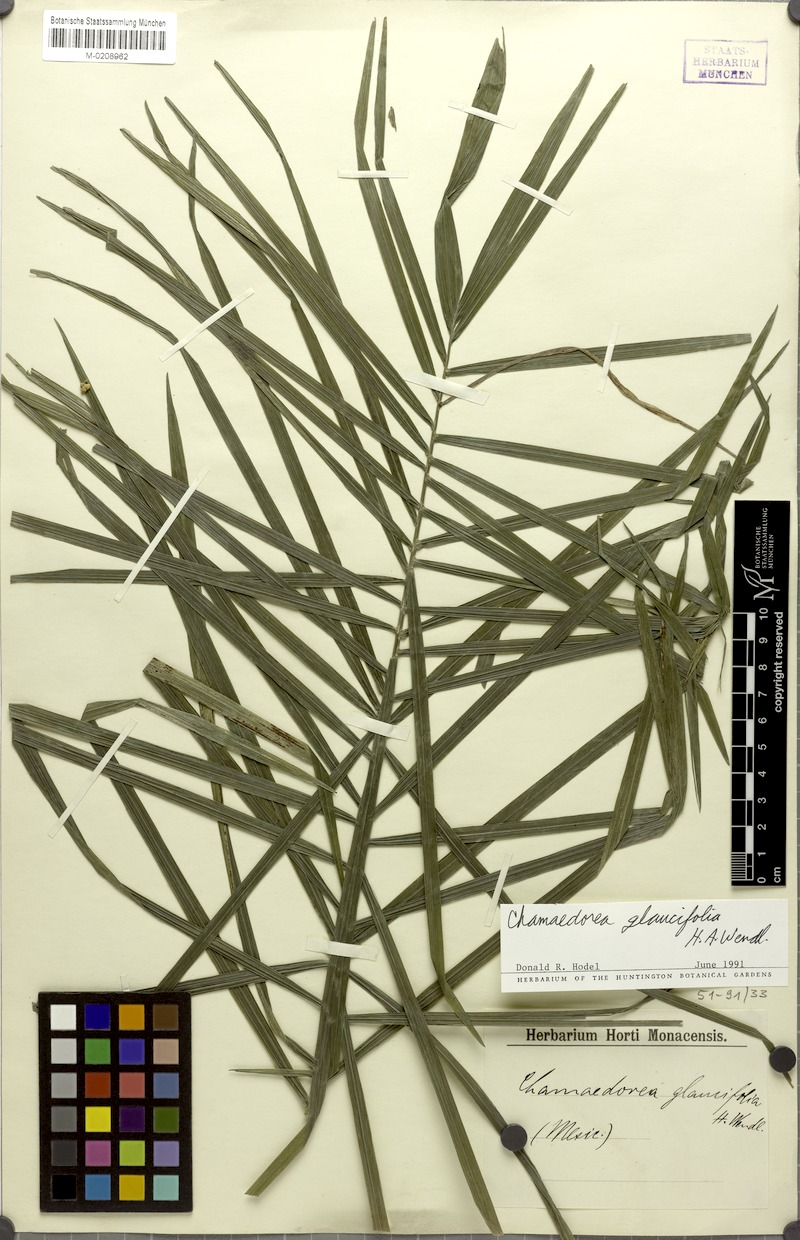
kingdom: Plantae
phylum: Tracheophyta
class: Liliopsida
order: Arecales
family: Arecaceae
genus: Chamaedorea
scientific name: Chamaedorea glaucifolia
